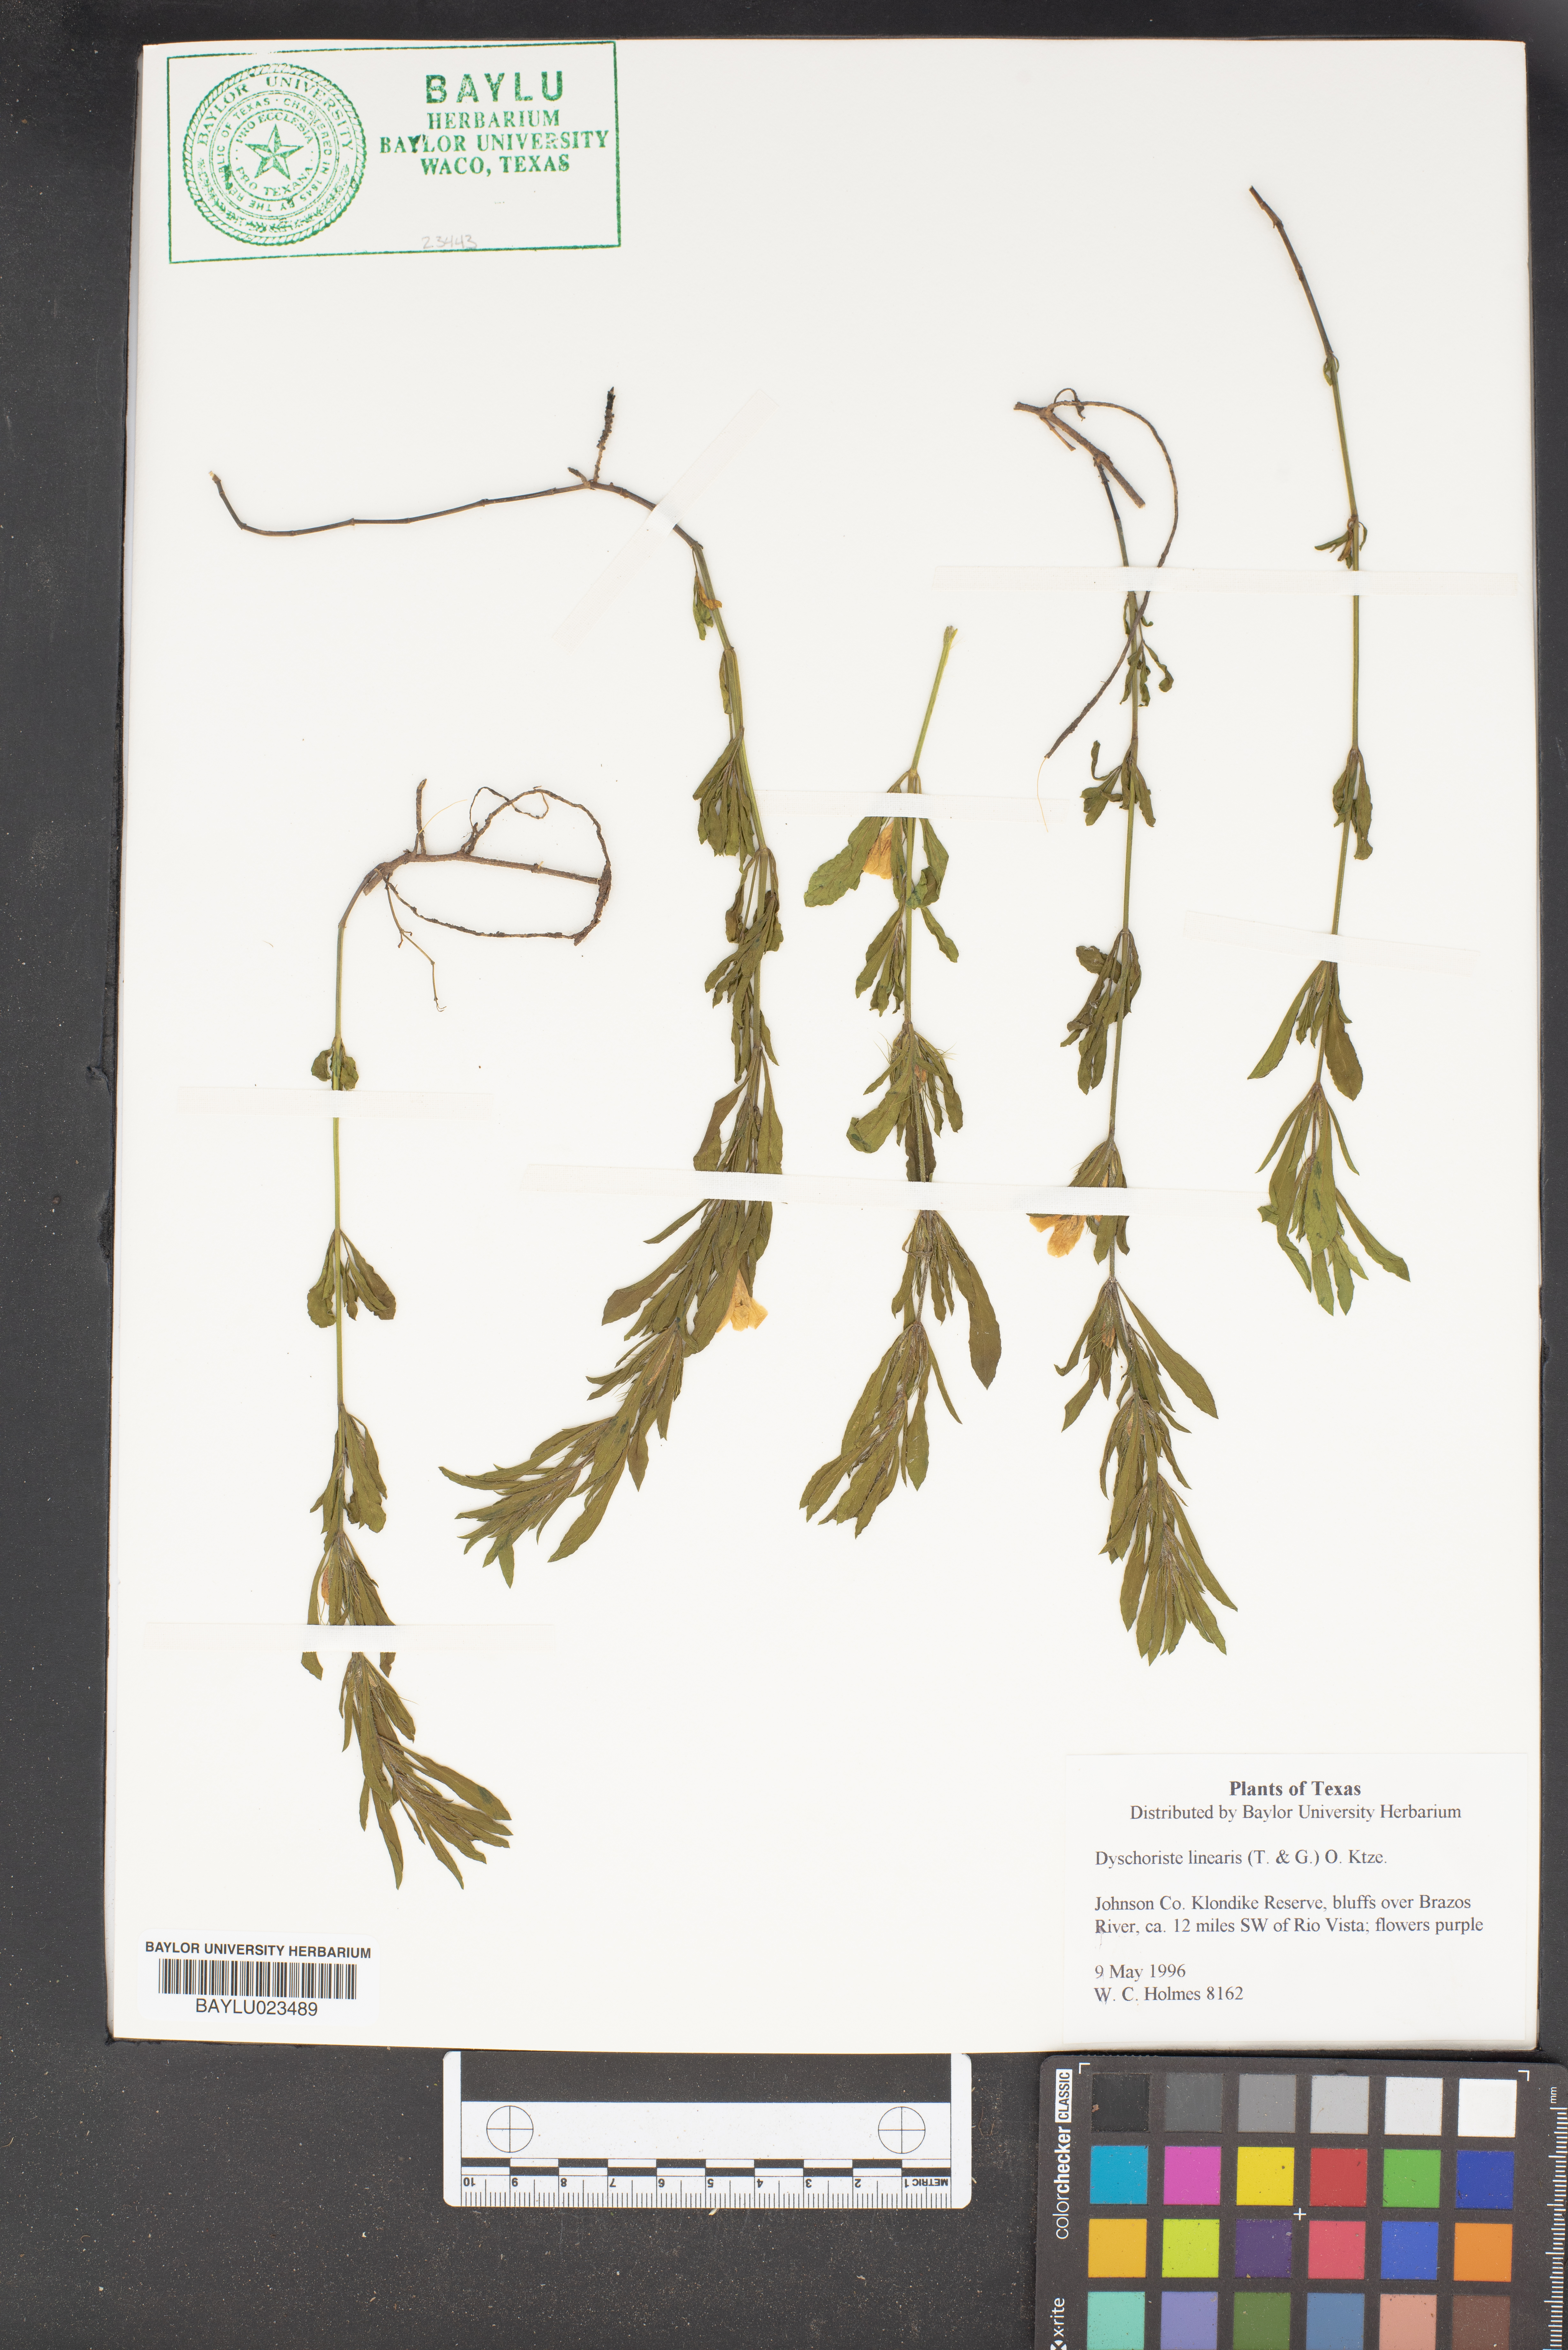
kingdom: Plantae
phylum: Tracheophyta
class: Magnoliopsida
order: Lamiales
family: Acanthaceae
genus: Dyschoriste
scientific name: Dyschoriste linearis
